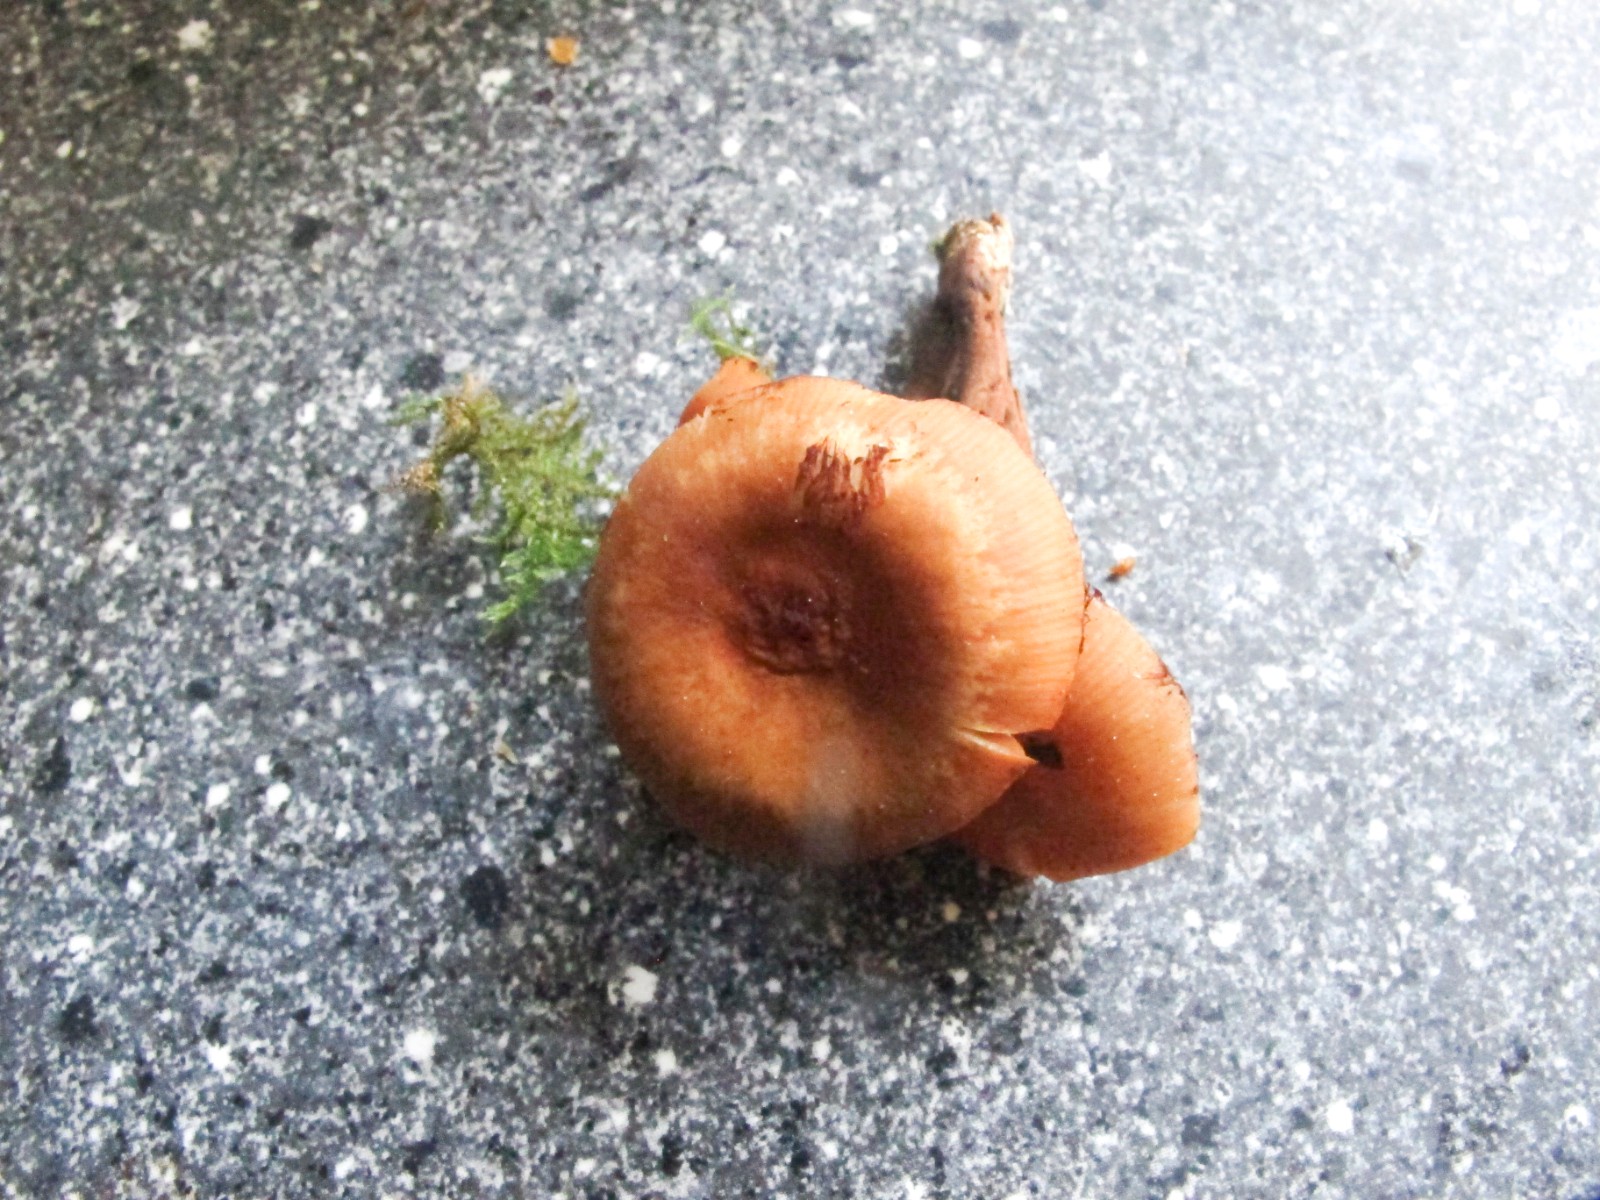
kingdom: Fungi
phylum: Basidiomycota
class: Agaricomycetes
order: Agaricales
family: Strophariaceae
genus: Kuehneromyces
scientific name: Kuehneromyces mutabilis
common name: foranderlig skælhat
